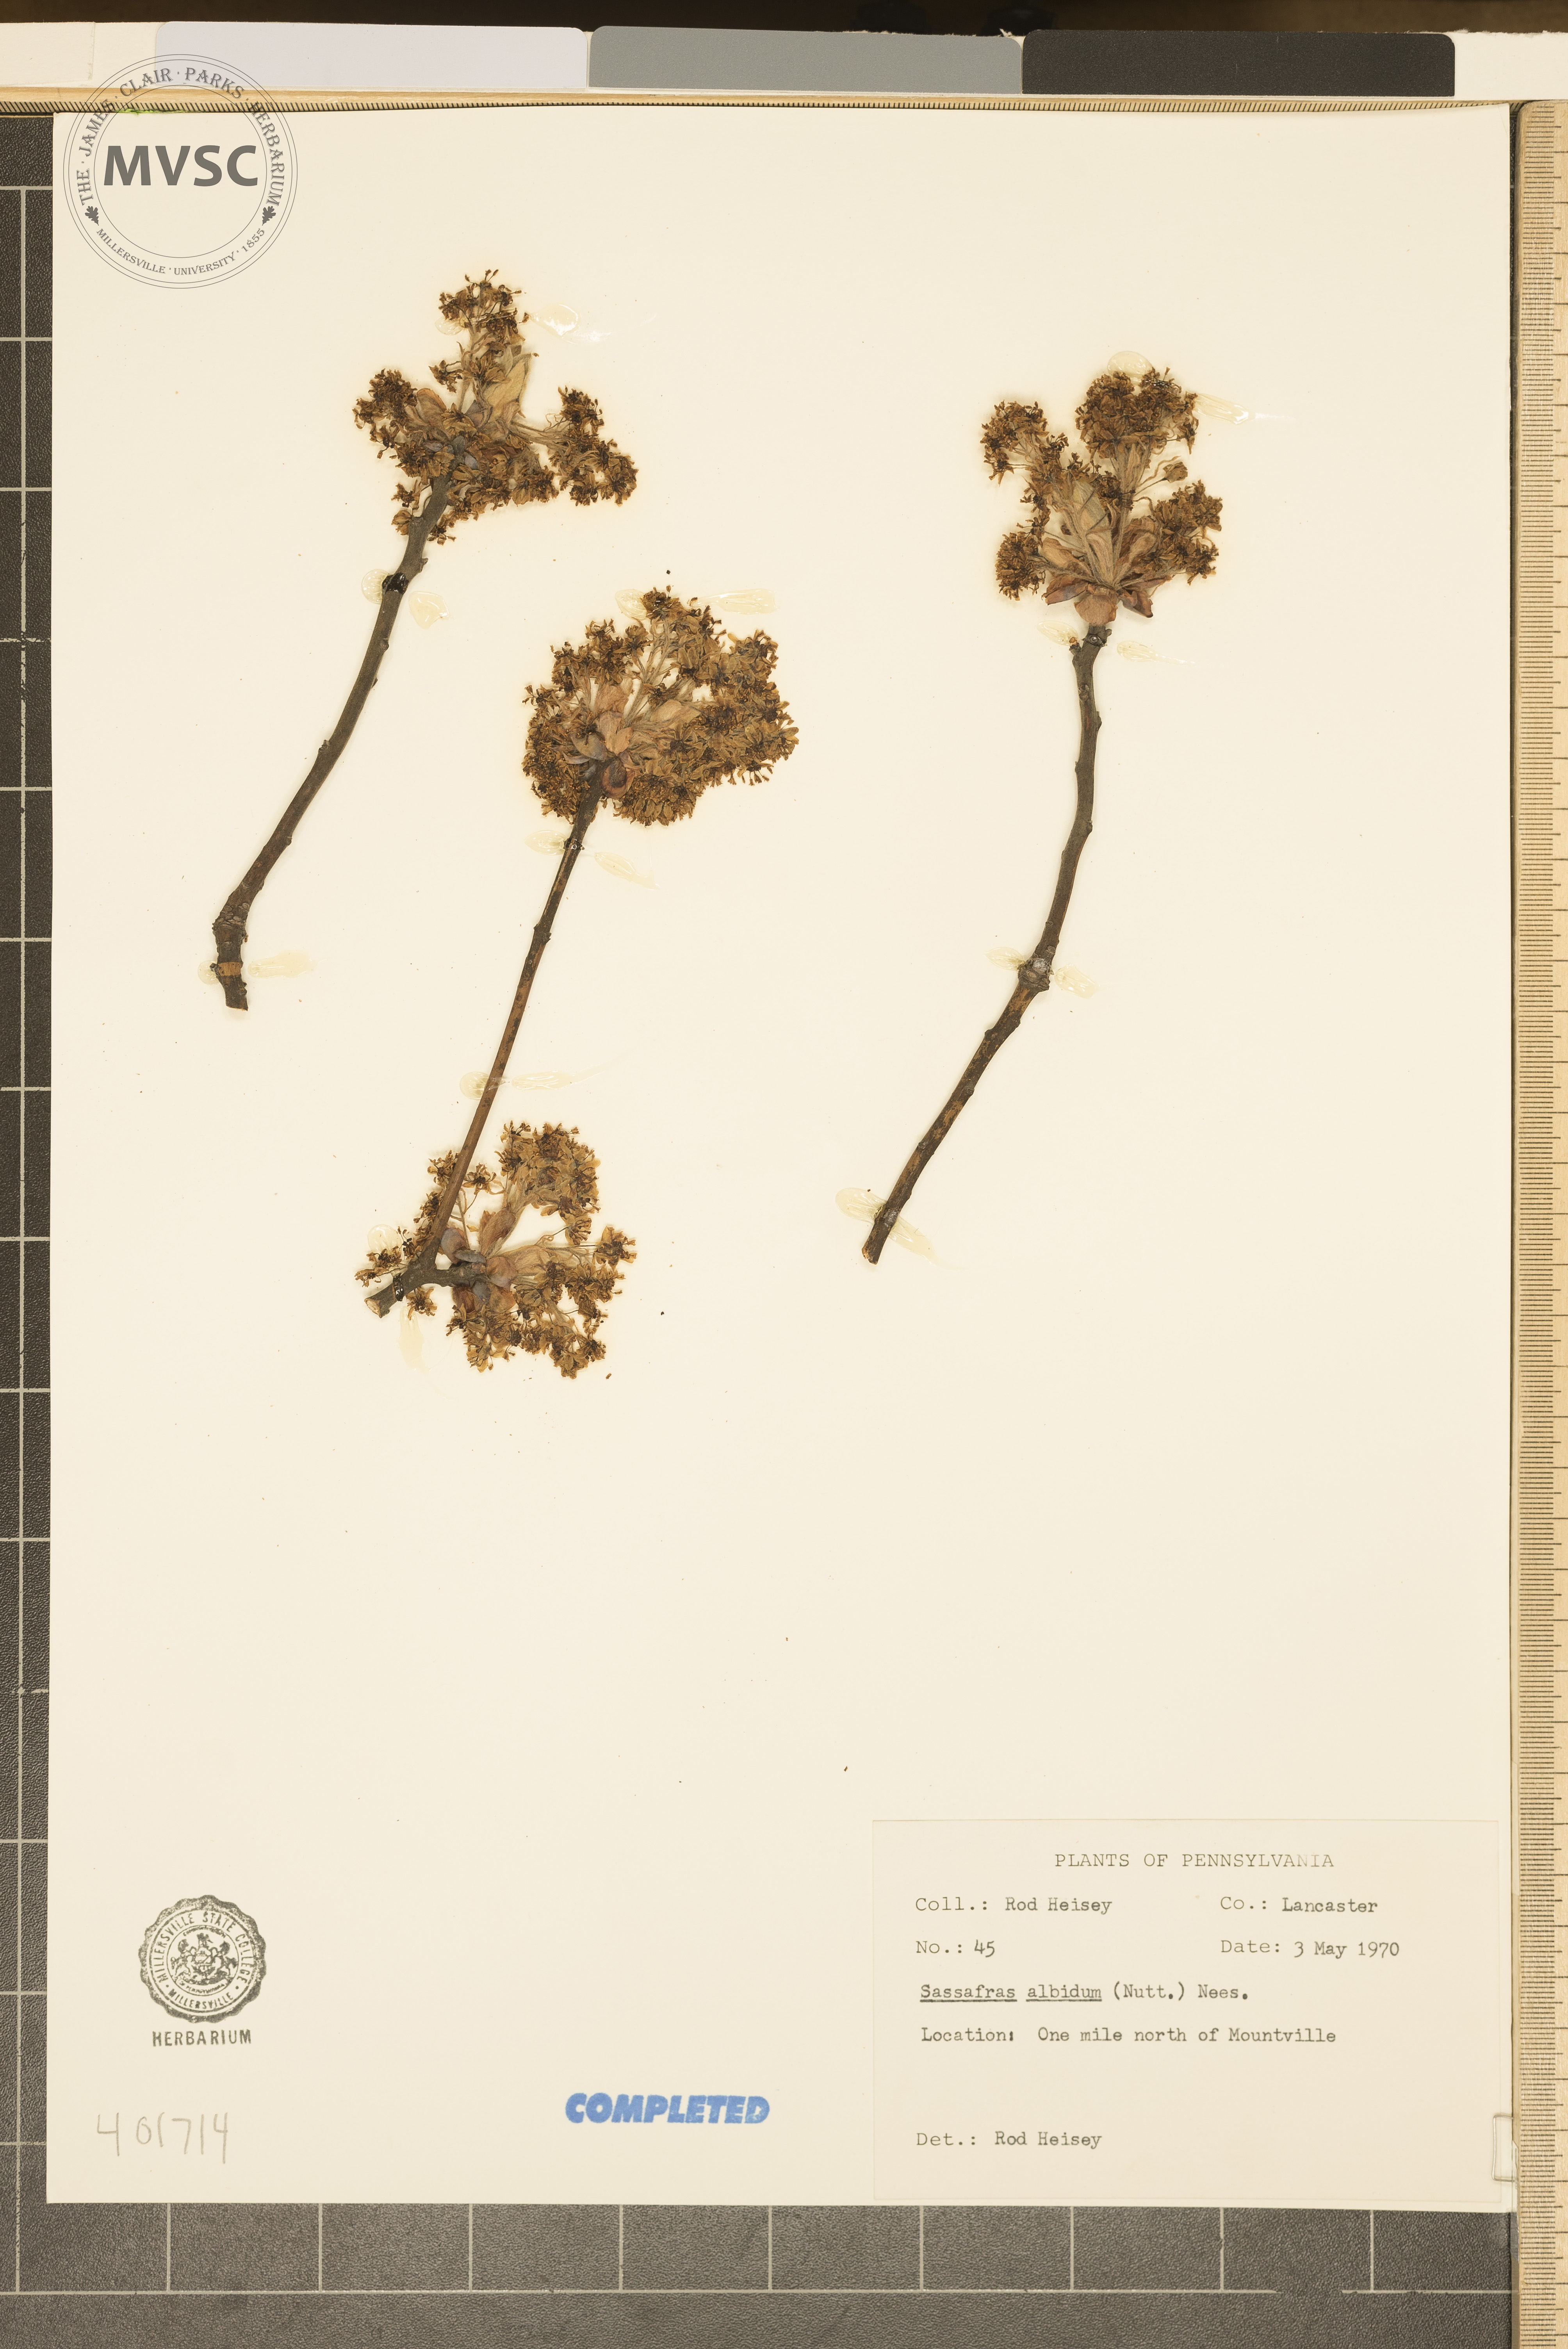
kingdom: Plantae
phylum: Tracheophyta
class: Magnoliopsida
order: Laurales
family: Lauraceae
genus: Sassafras
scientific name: Sassafras albidum
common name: Sassafras
